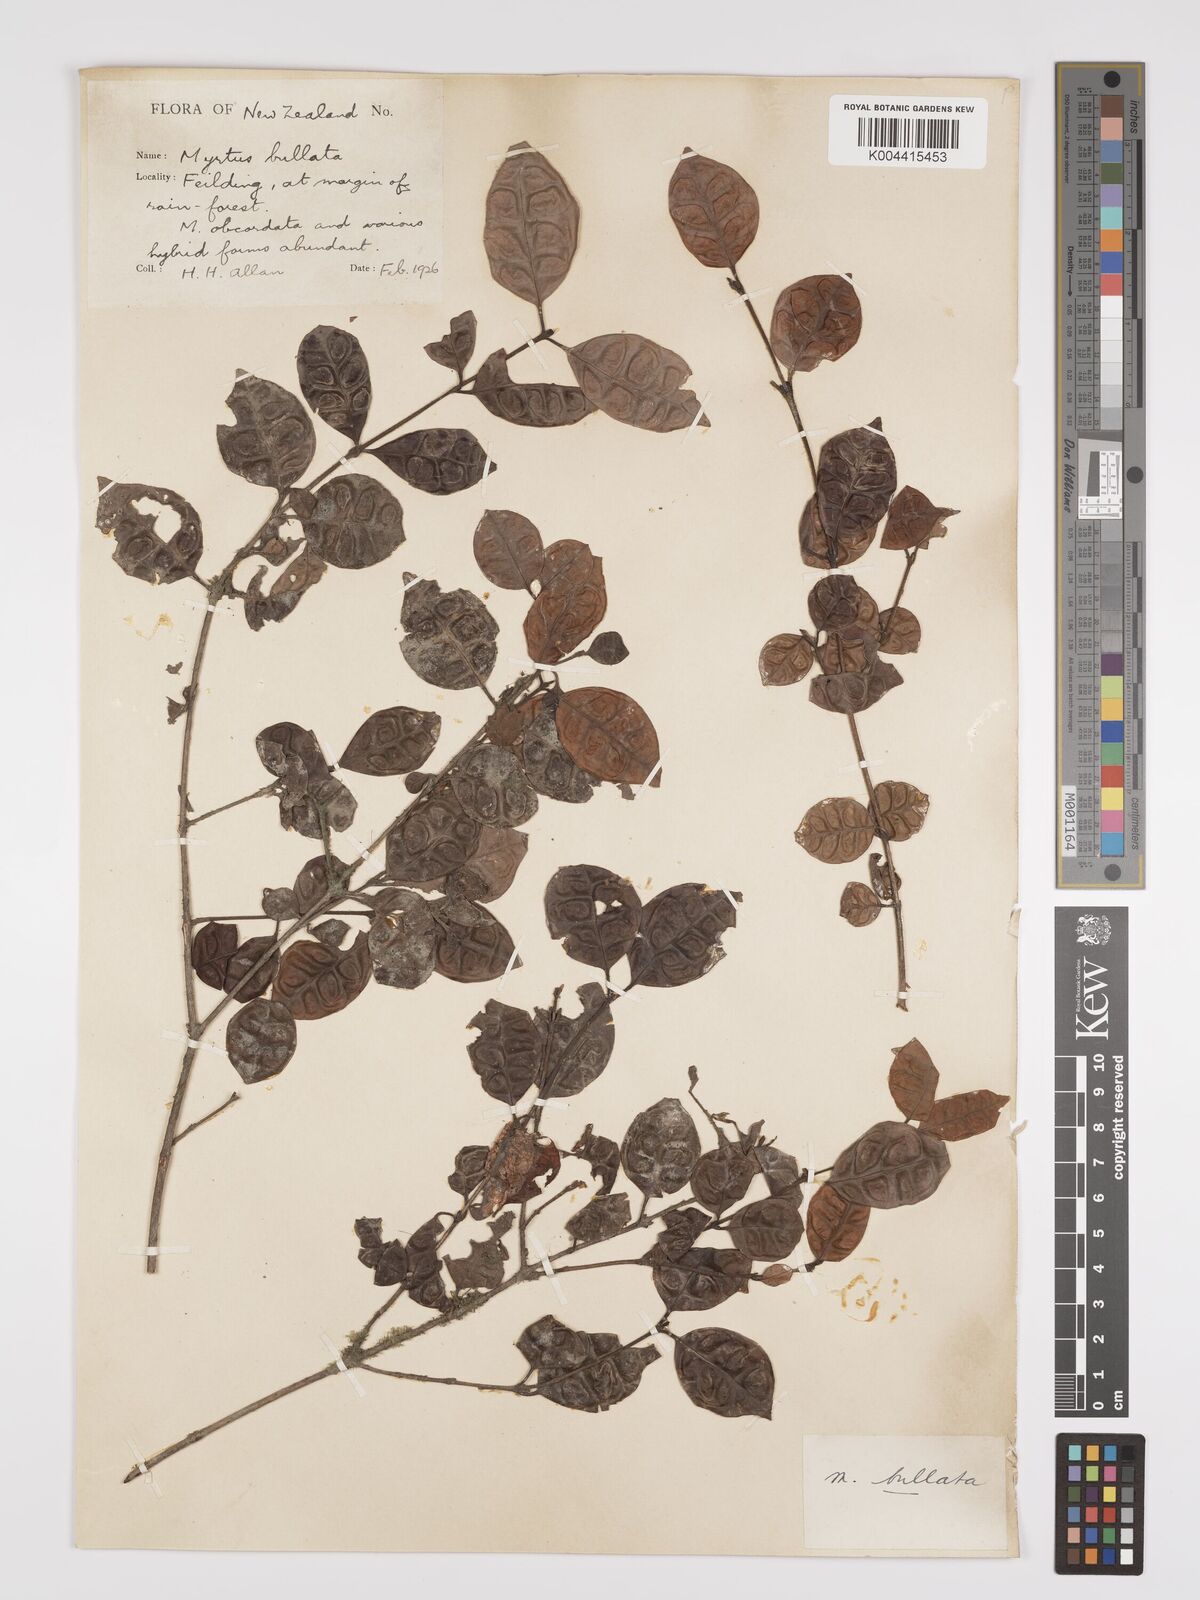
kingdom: Plantae
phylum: Tracheophyta
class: Magnoliopsida
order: Myrtales
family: Myrtaceae
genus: Lophomyrtus
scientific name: Lophomyrtus bullata
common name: Rama rama
